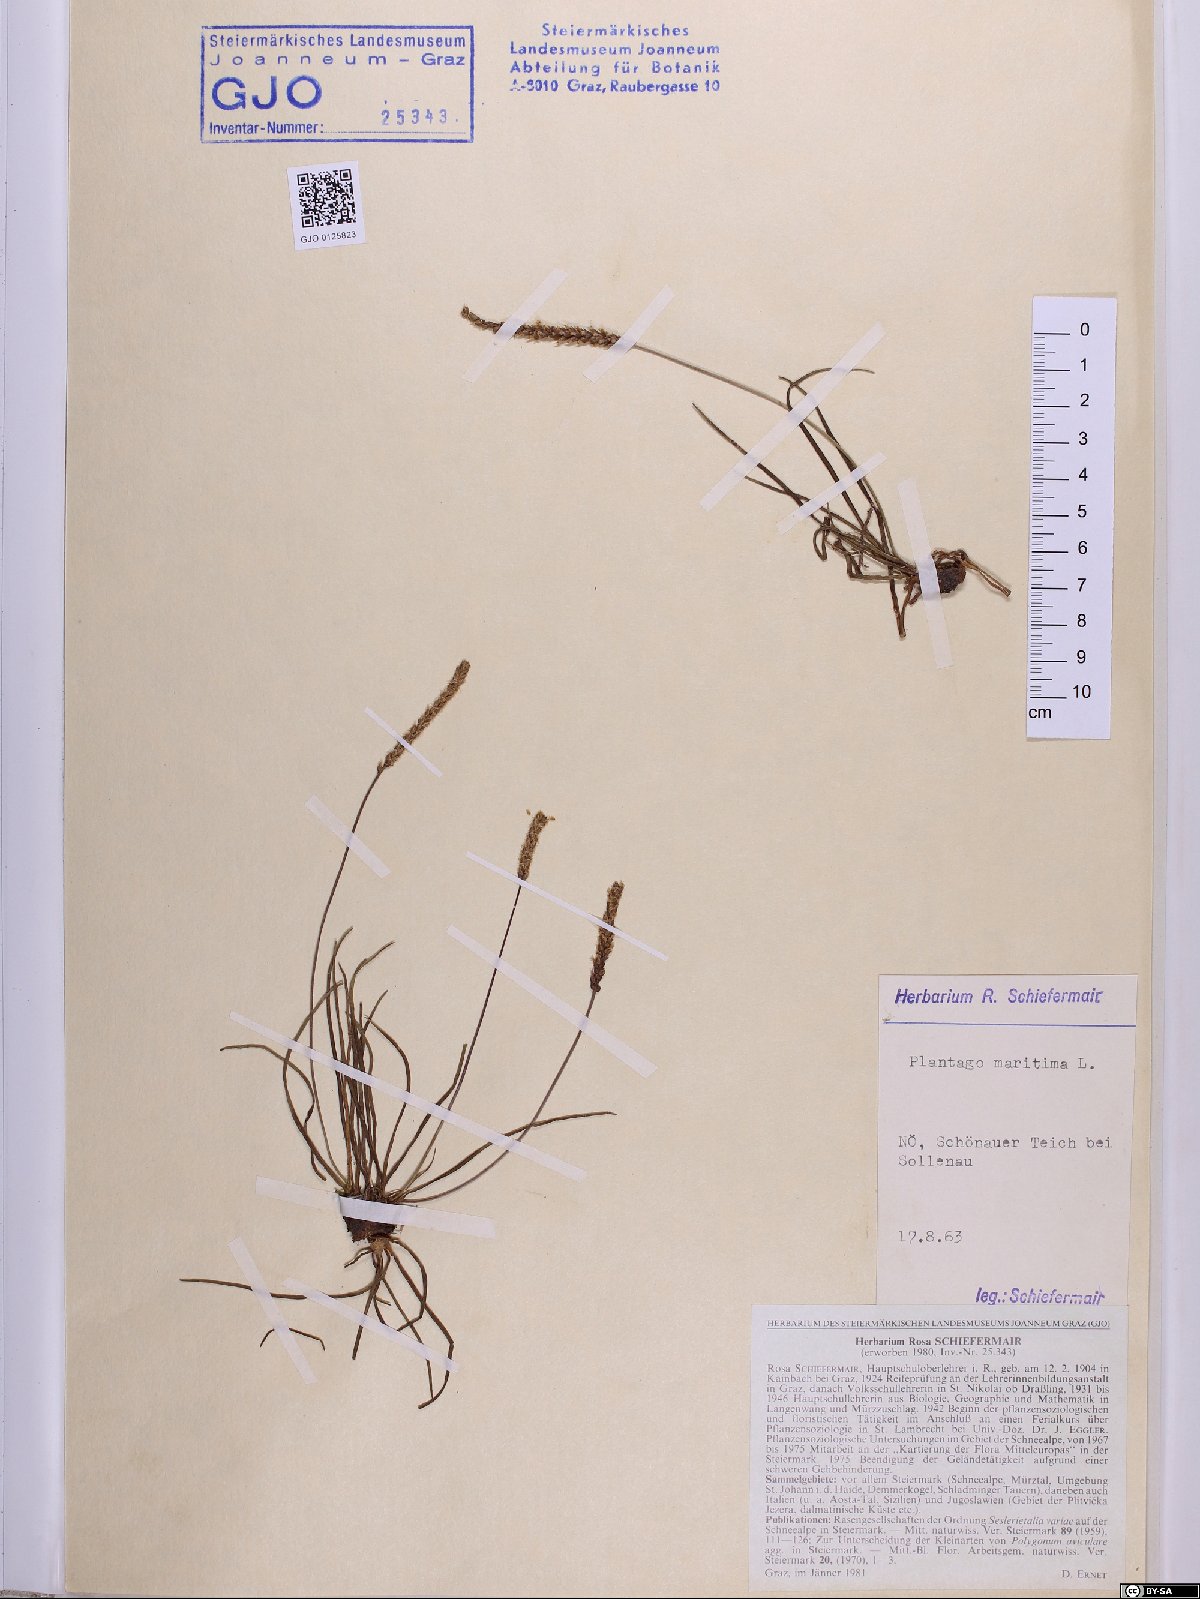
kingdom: Plantae
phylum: Tracheophyta
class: Magnoliopsida
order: Lamiales
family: Plantaginaceae
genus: Plantago
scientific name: Plantago maritima
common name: Sea plantain
